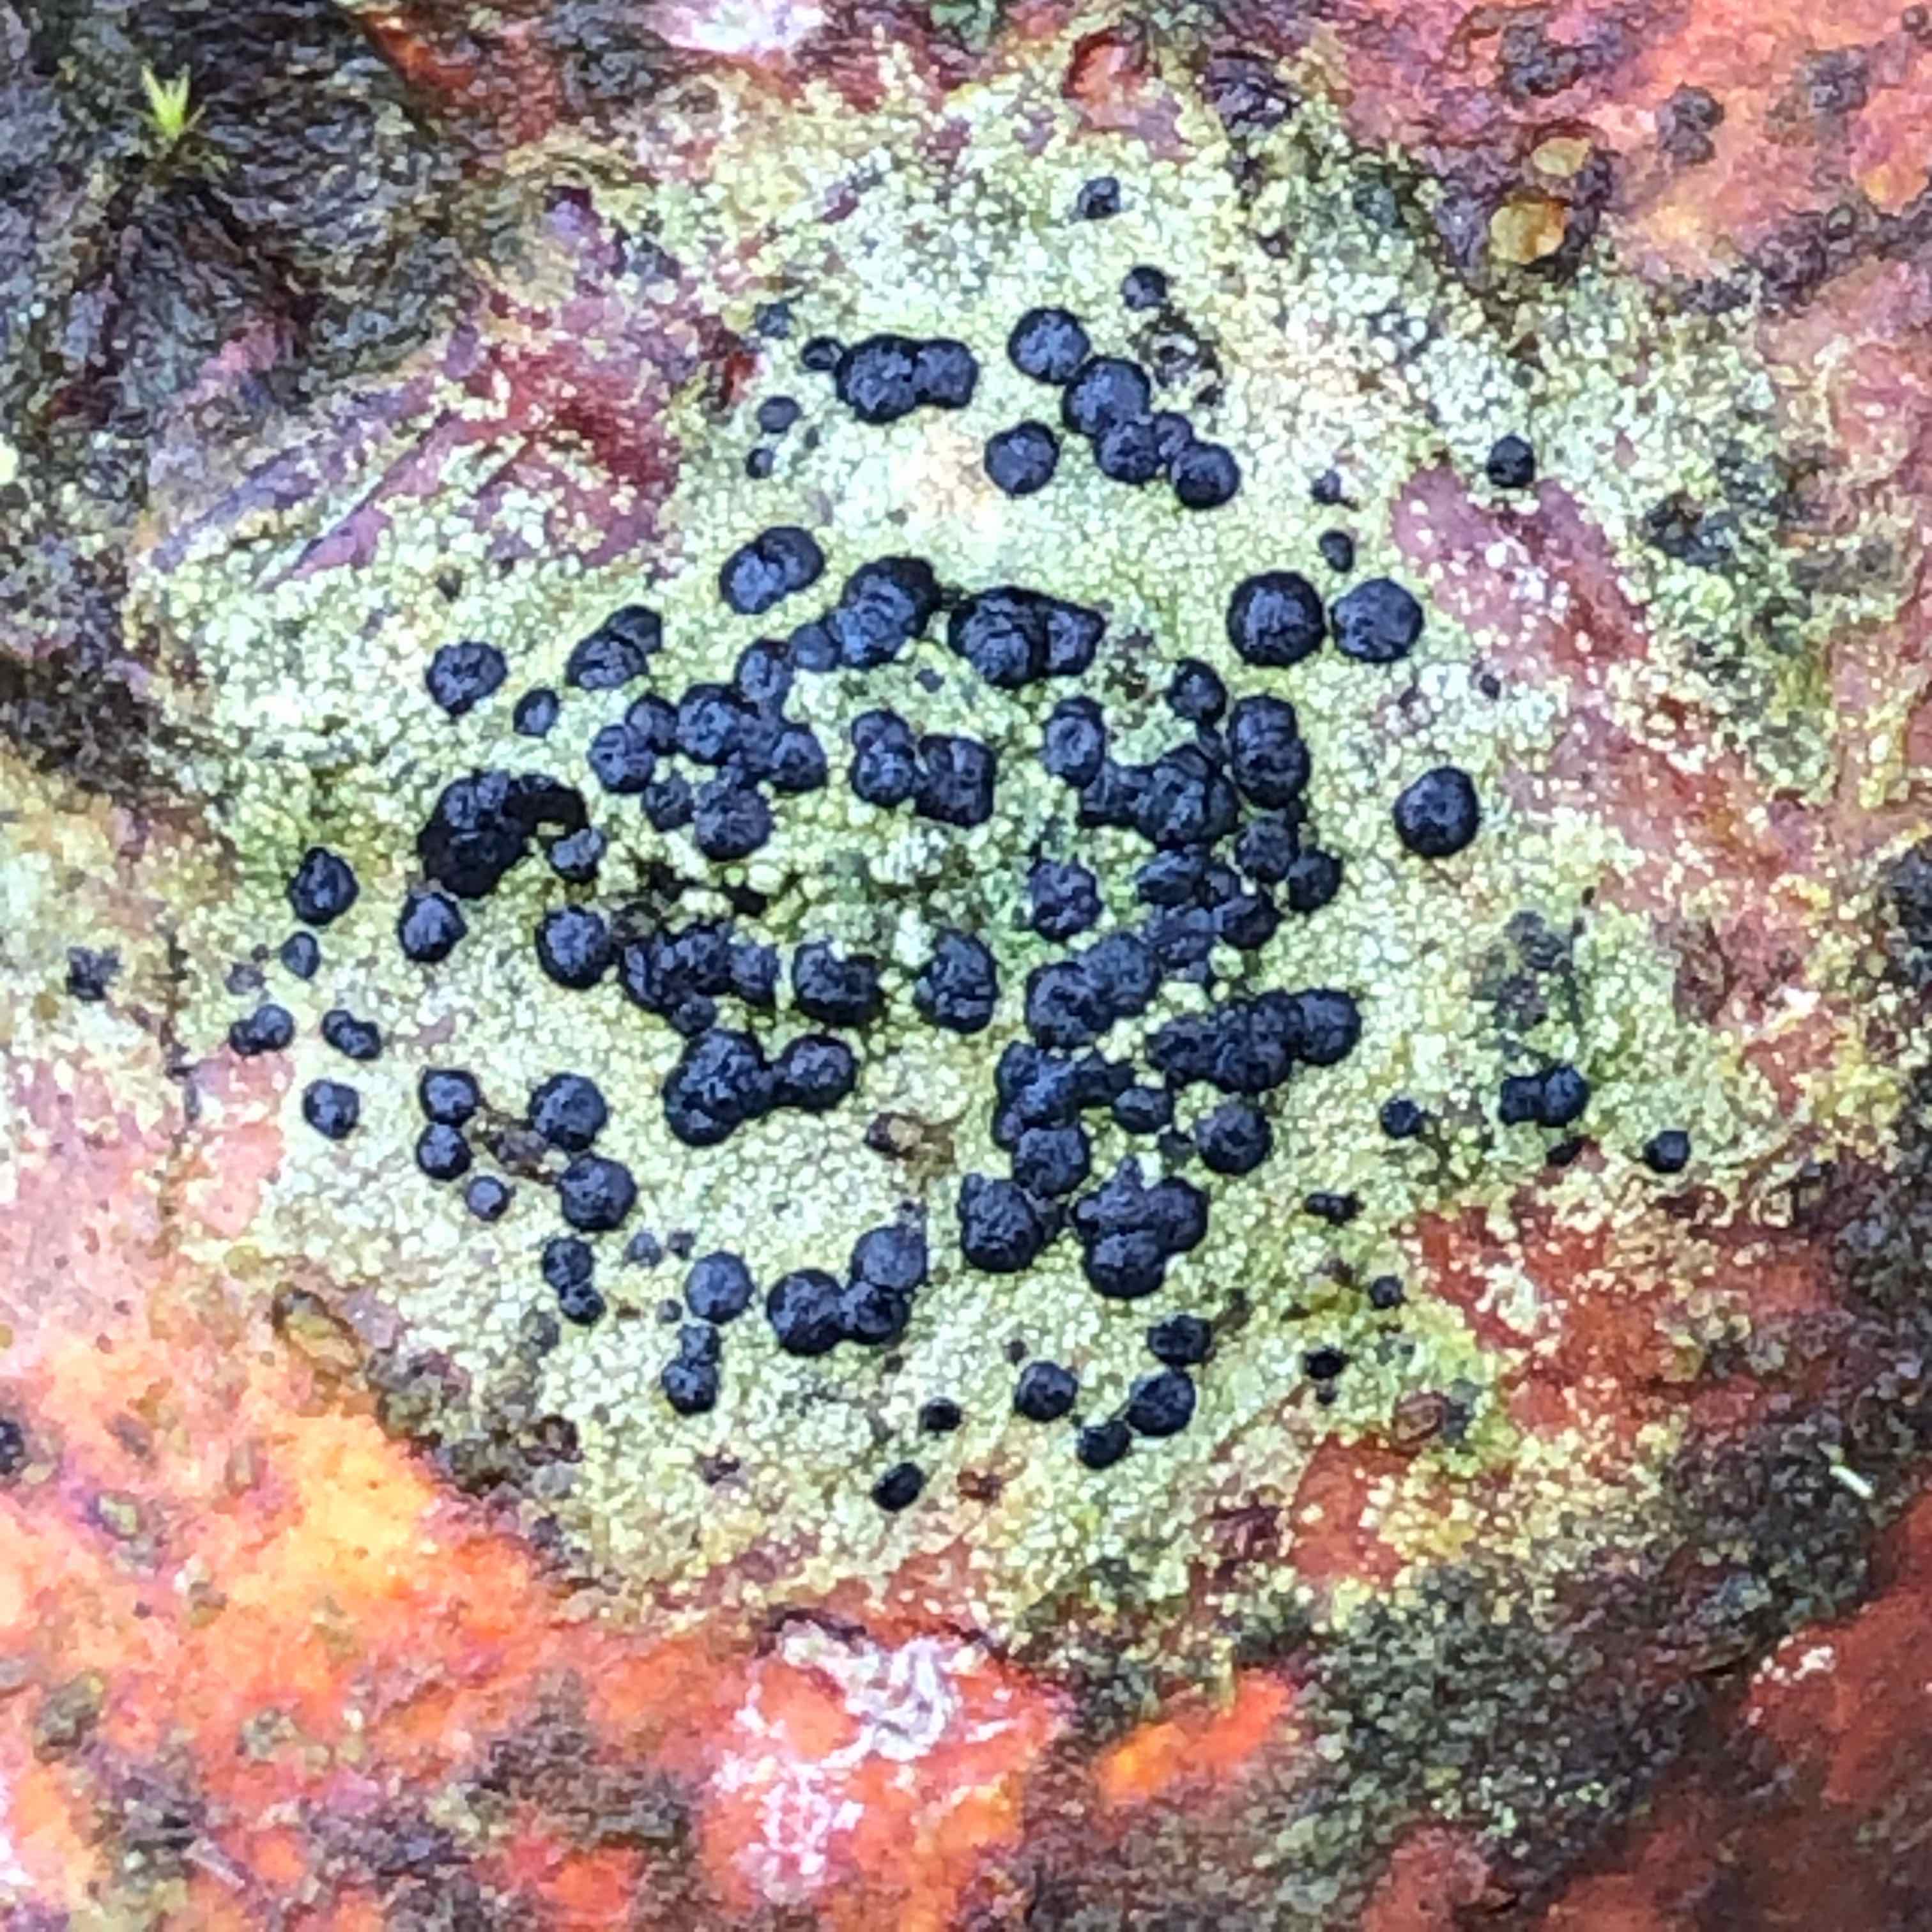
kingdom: Fungi
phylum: Ascomycota
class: Lecanoromycetes
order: Lecanorales
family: Lecanoraceae
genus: Lecidella
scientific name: Lecidella elaeochroma
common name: grågrøn skivelav
